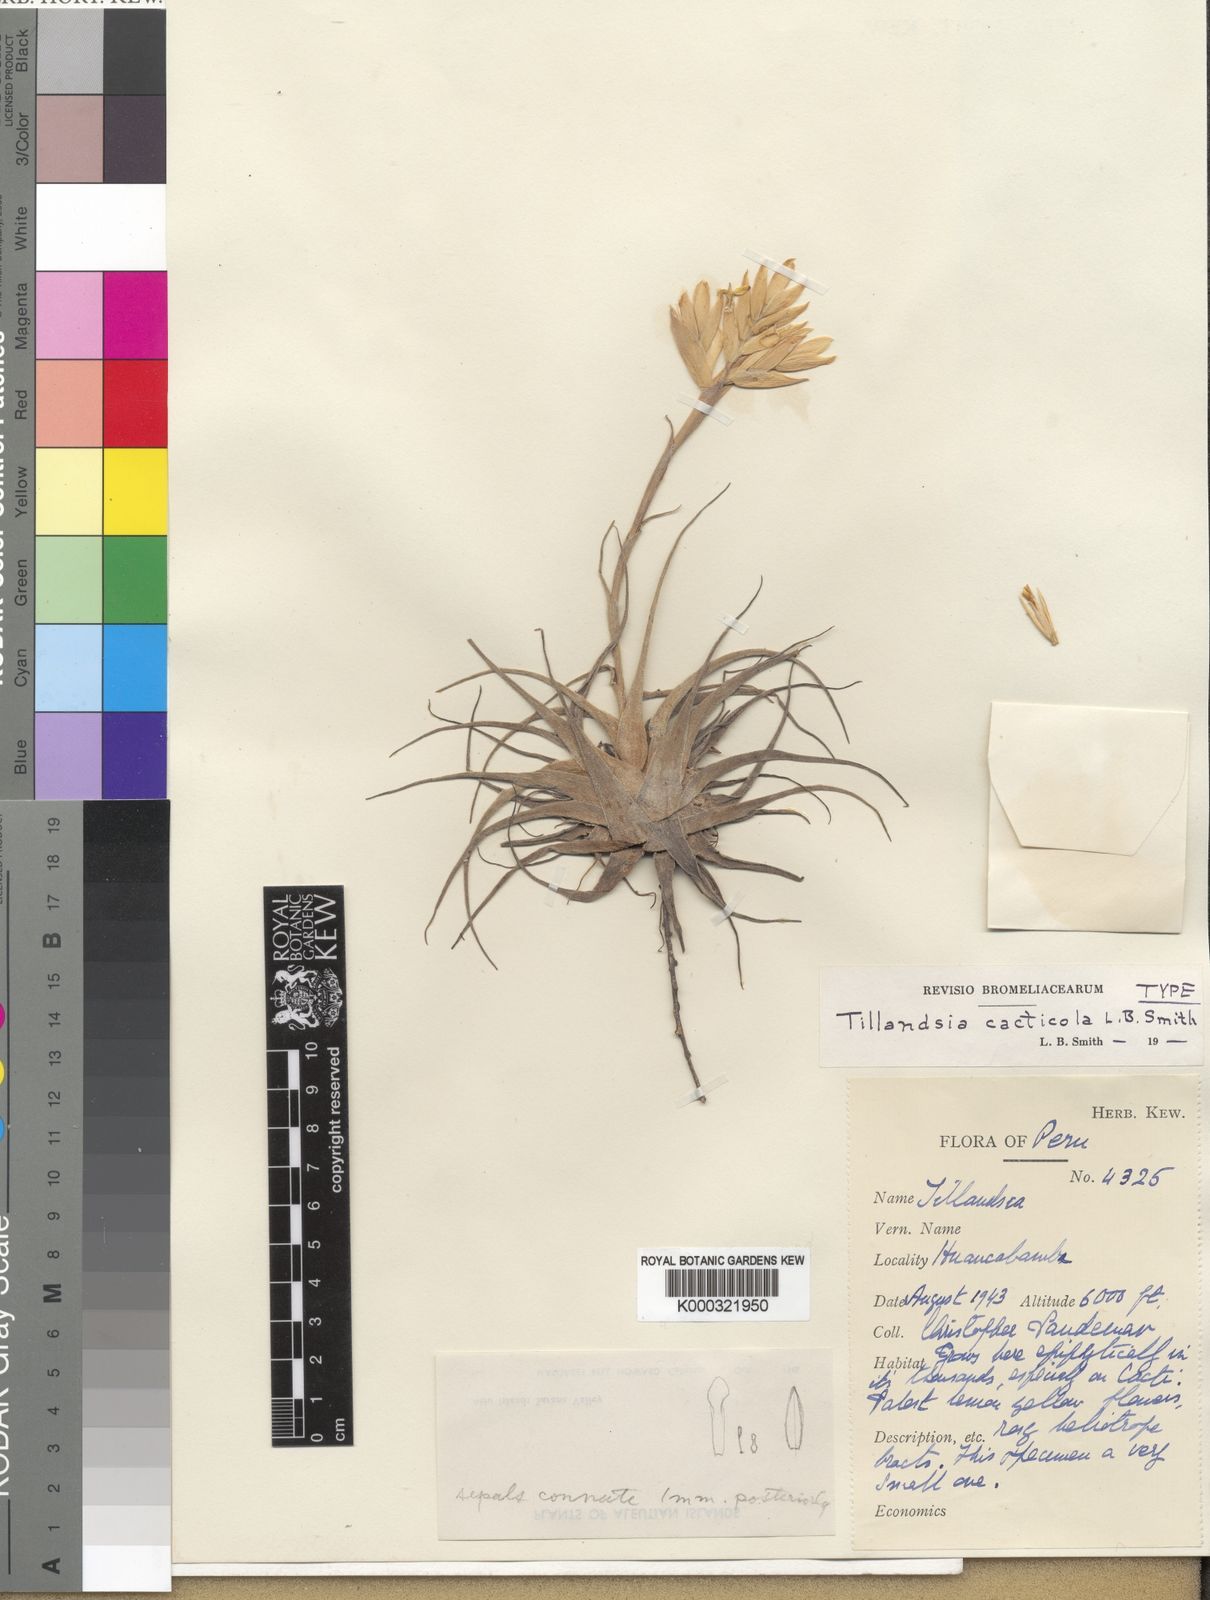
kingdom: Plantae
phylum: Tracheophyta
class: Liliopsida
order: Poales
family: Bromeliaceae
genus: Tillandsia
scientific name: Tillandsia cacticola
